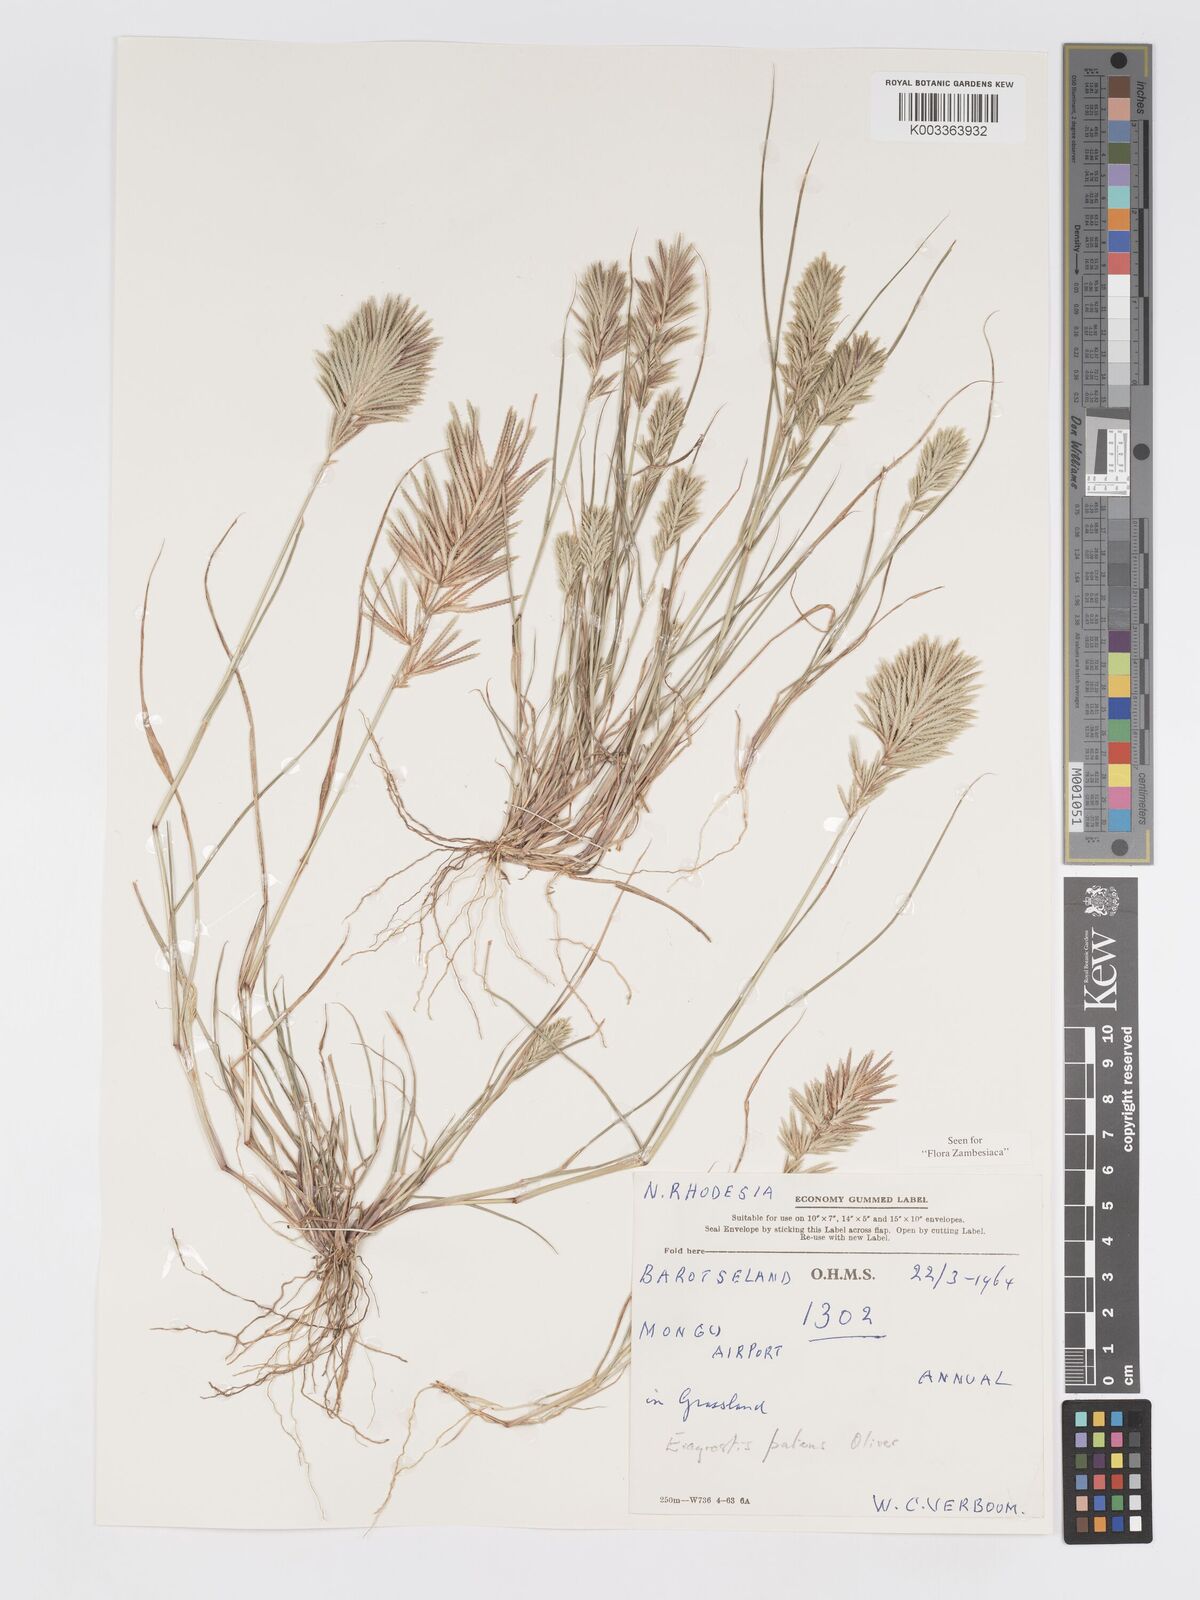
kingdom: Plantae
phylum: Tracheophyta
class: Liliopsida
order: Poales
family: Poaceae
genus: Eragrostis
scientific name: Eragrostis patens
